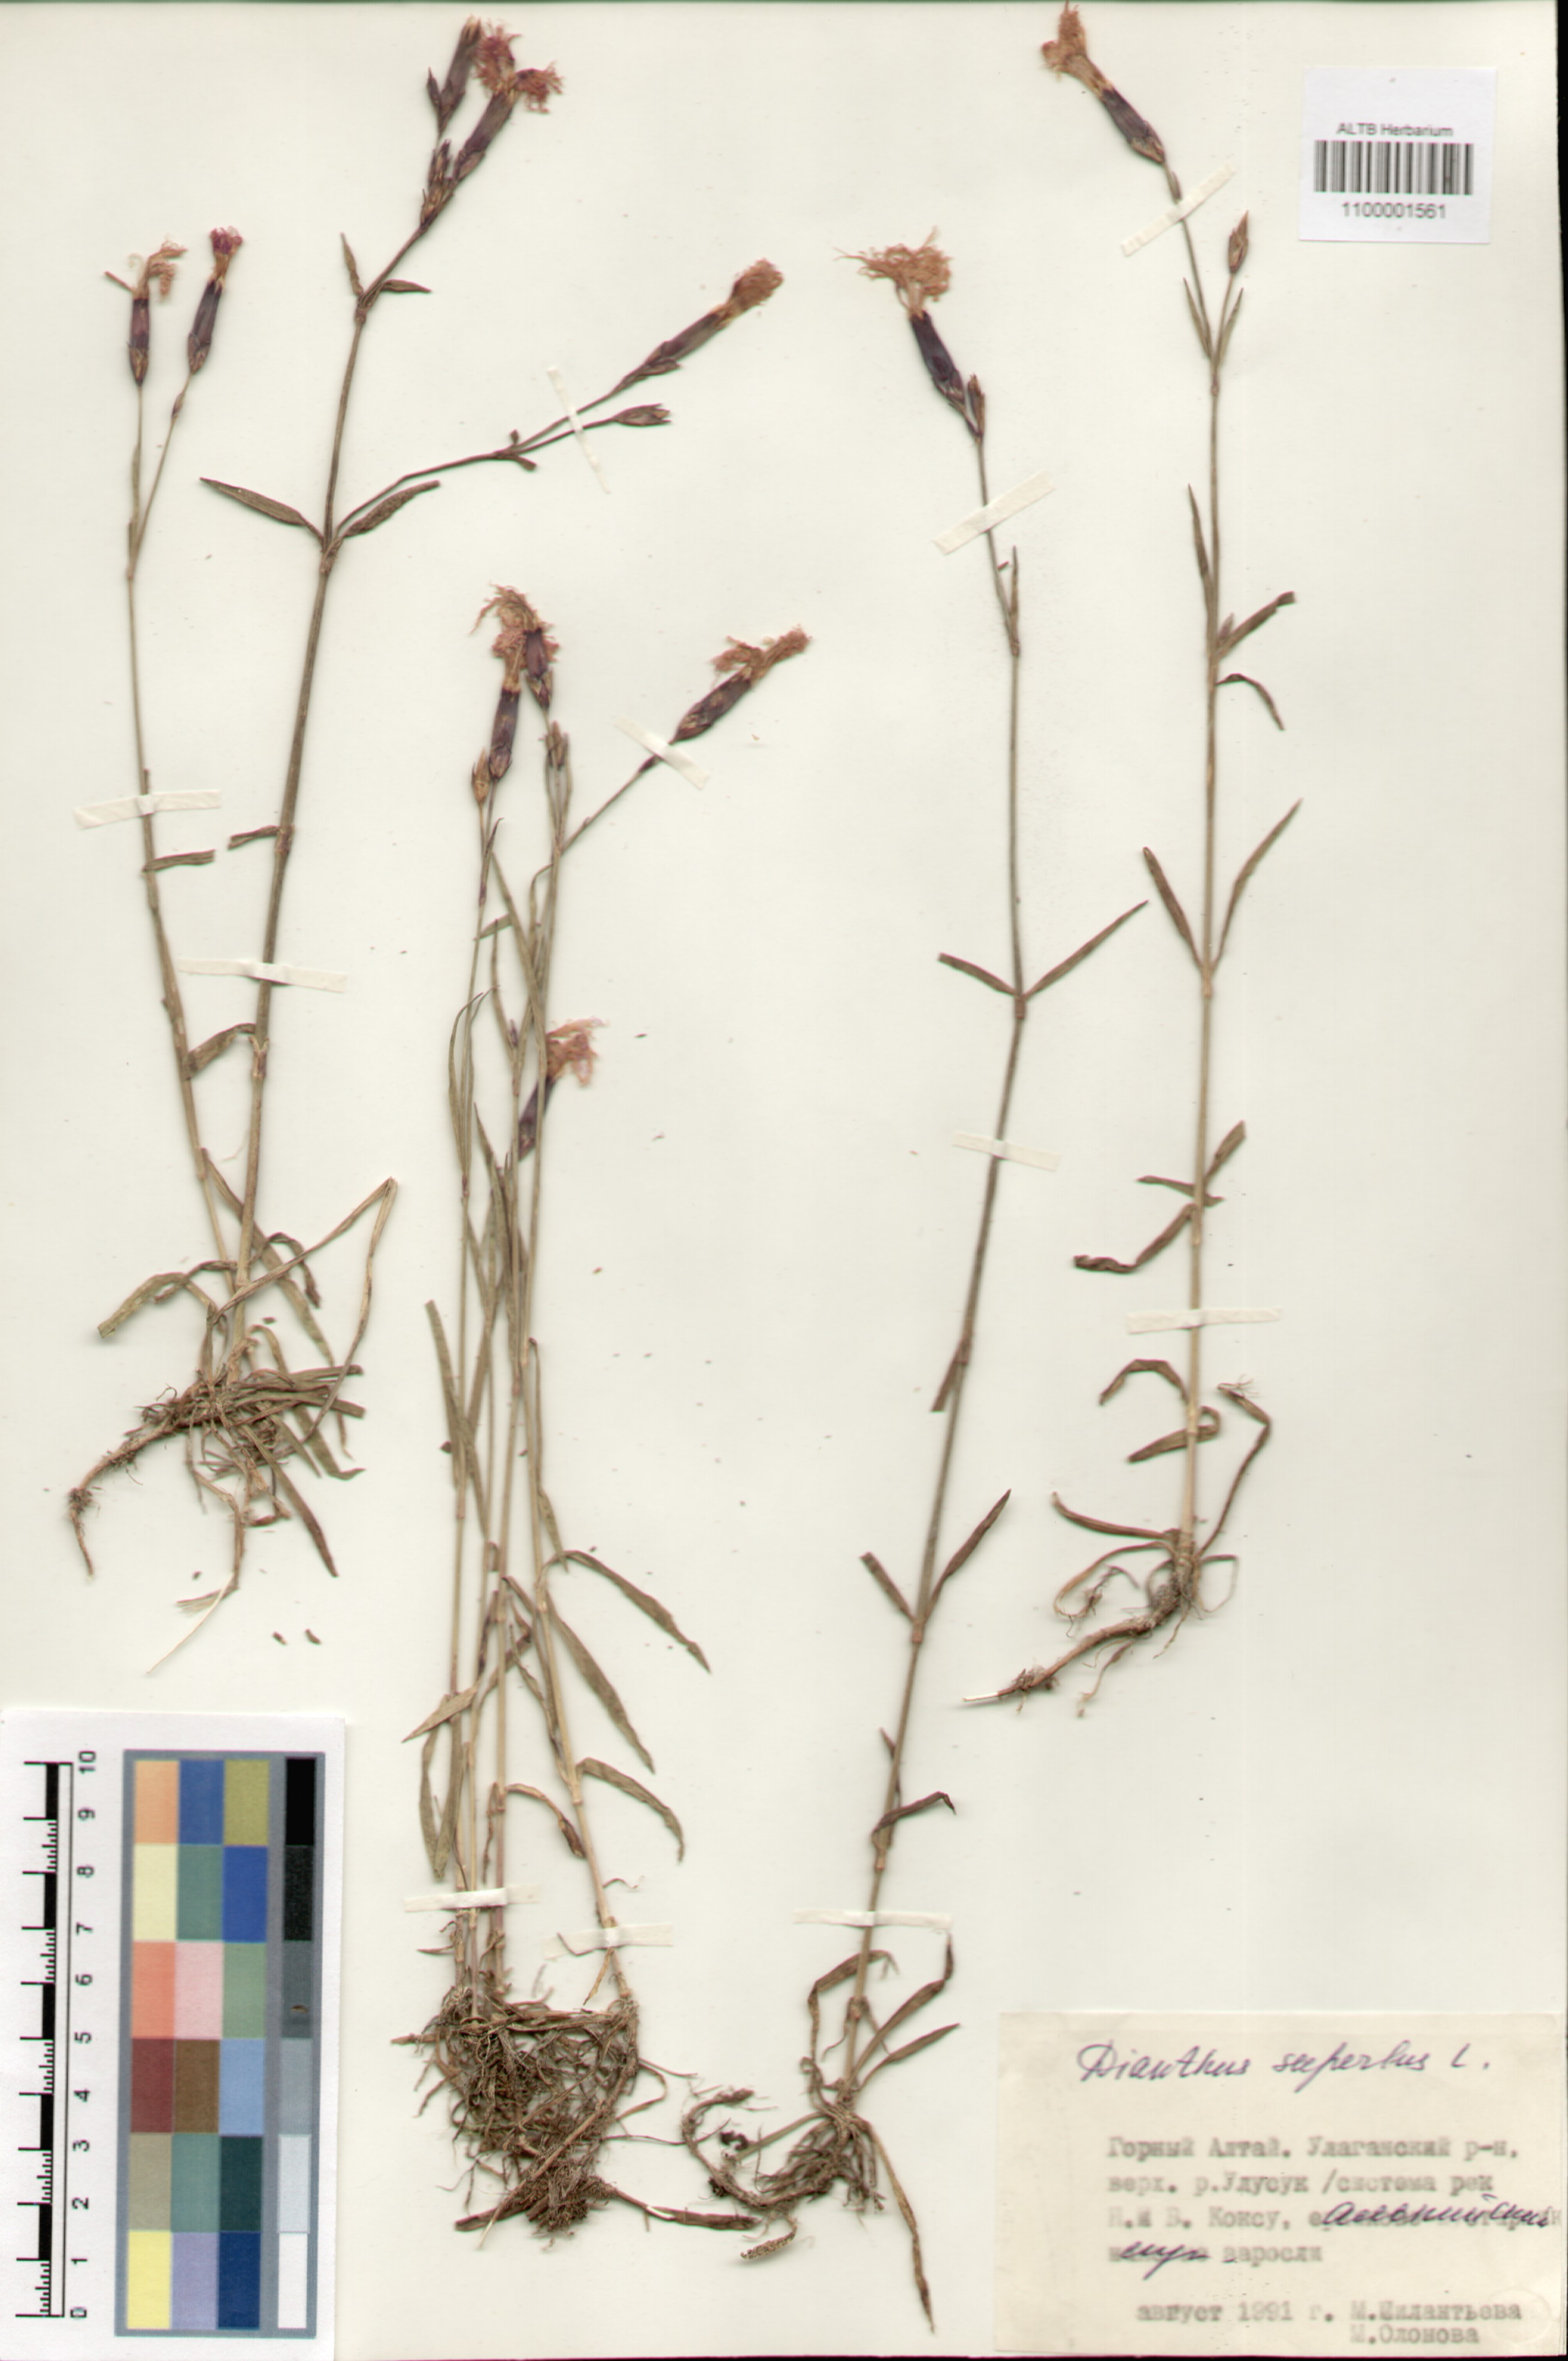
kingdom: Plantae
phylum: Tracheophyta
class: Magnoliopsida
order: Caryophyllales
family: Caryophyllaceae
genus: Dianthus
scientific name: Dianthus superbus
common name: Fringed pink
